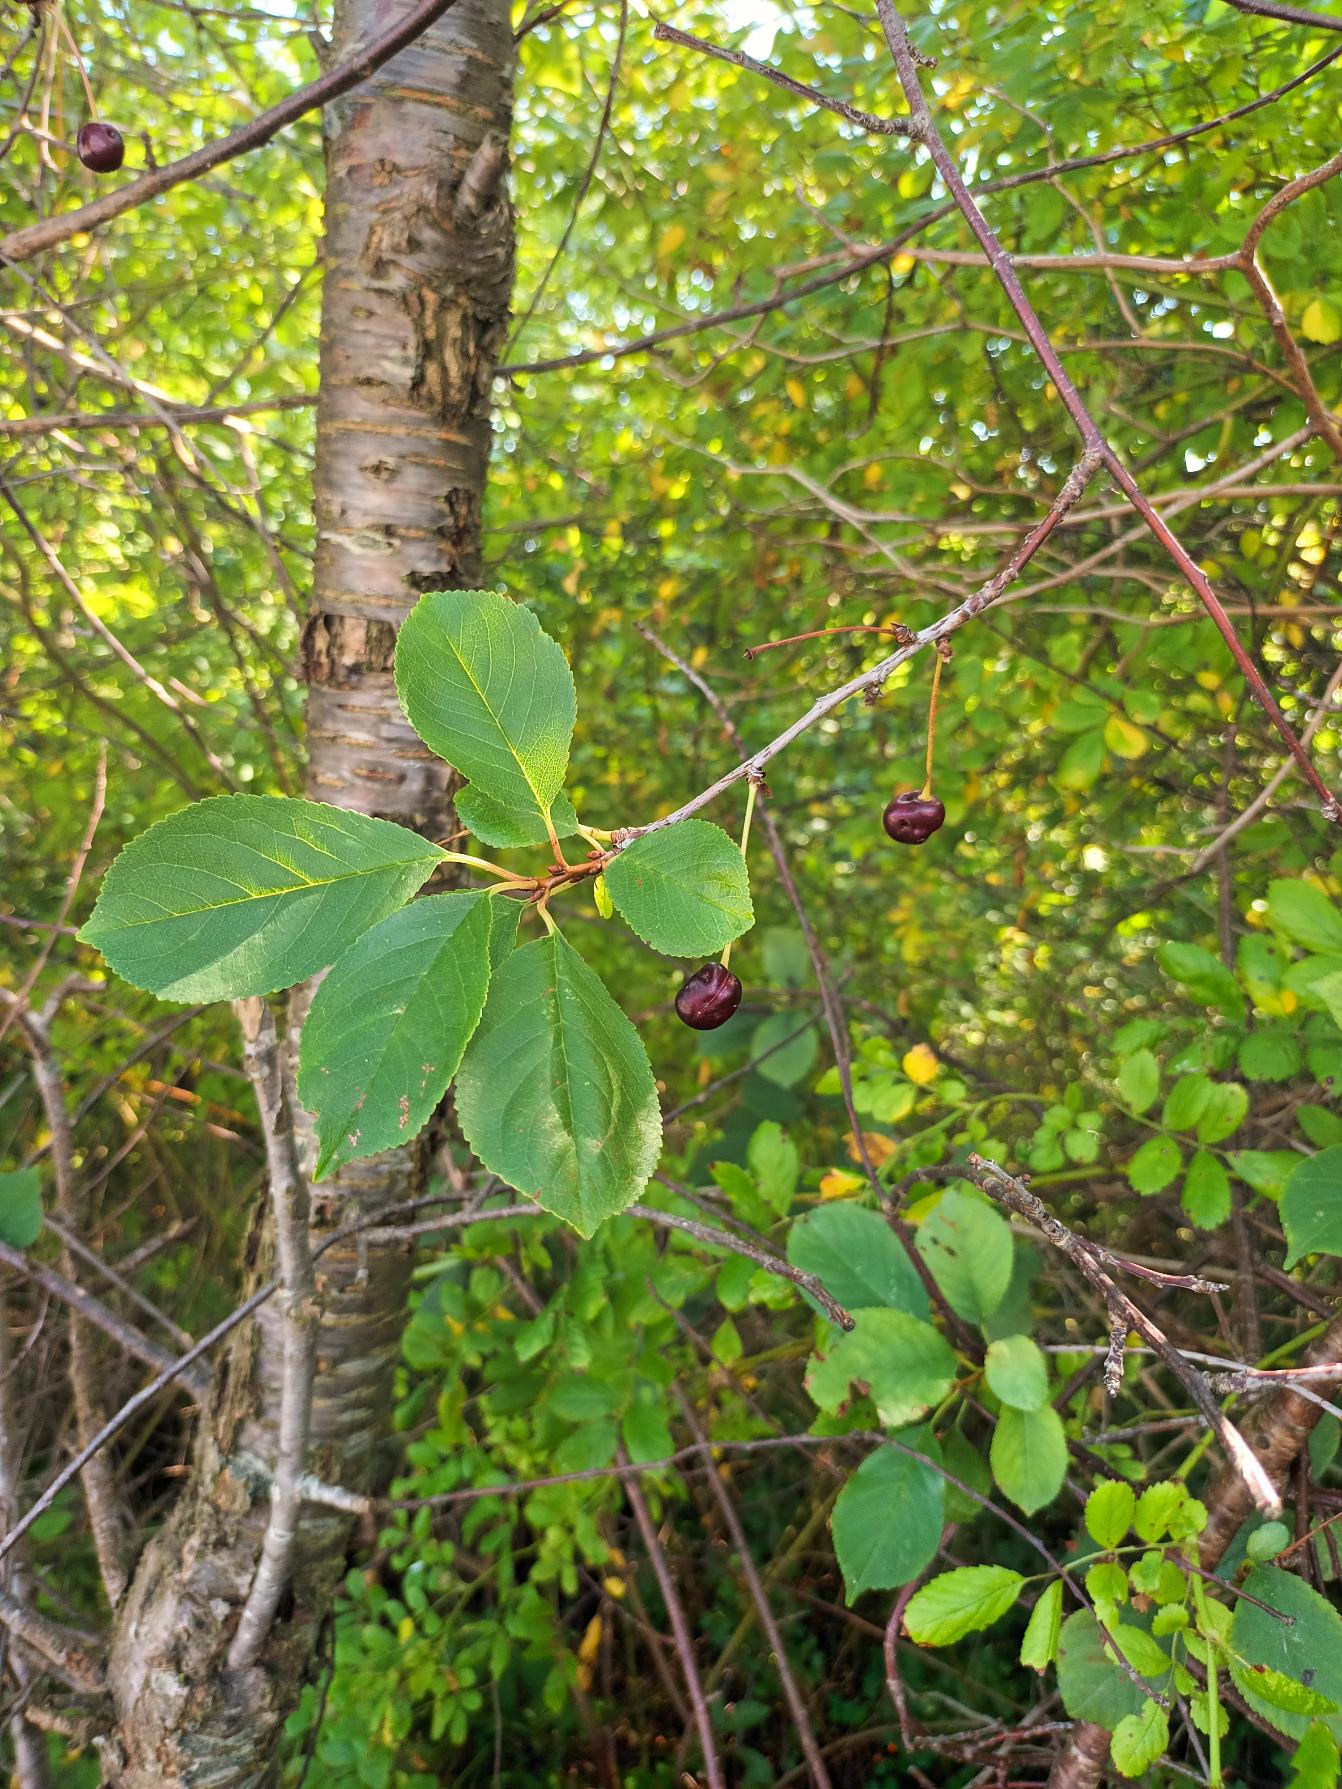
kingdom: Plantae
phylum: Tracheophyta
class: Magnoliopsida
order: Rosales
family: Rosaceae
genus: Prunus
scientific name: Prunus cerasus
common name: Sur-kirsebær
